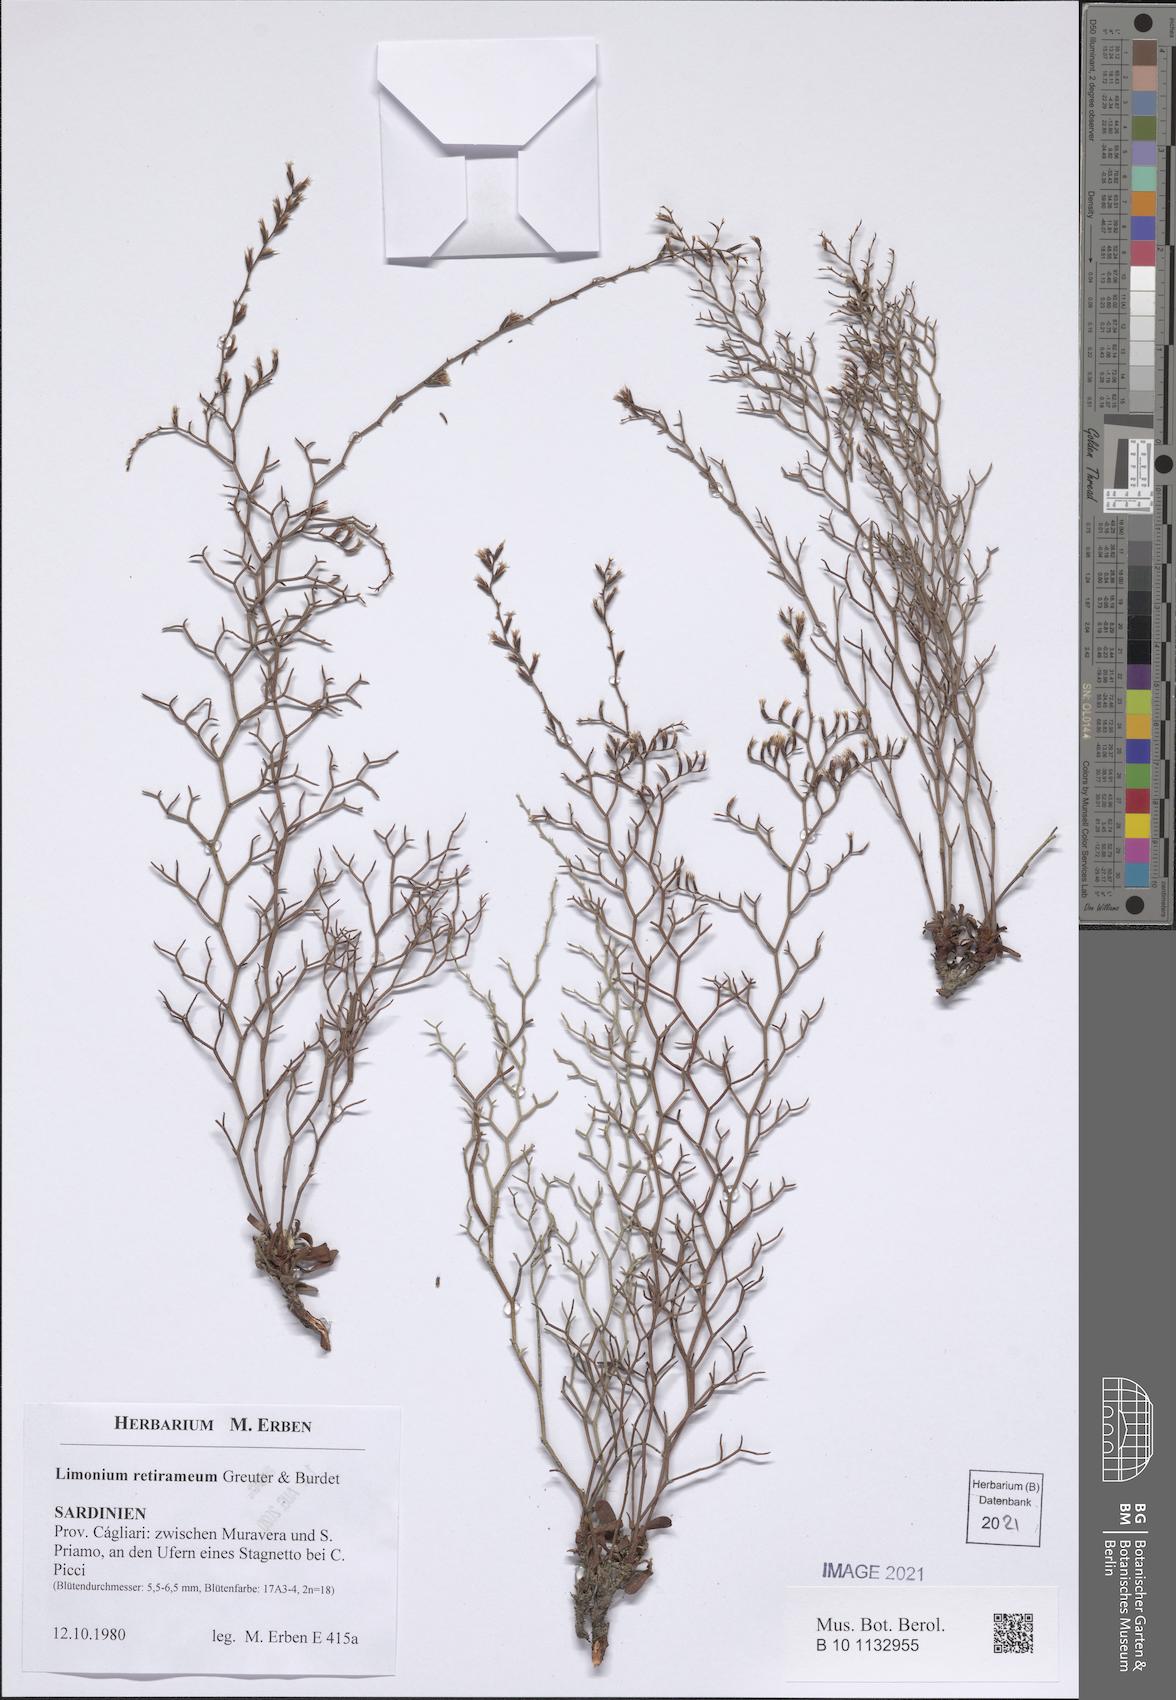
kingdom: Plantae
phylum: Tracheophyta
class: Magnoliopsida
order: Caryophyllales
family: Plumbaginaceae
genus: Limonium
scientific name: Limonium retirameum
